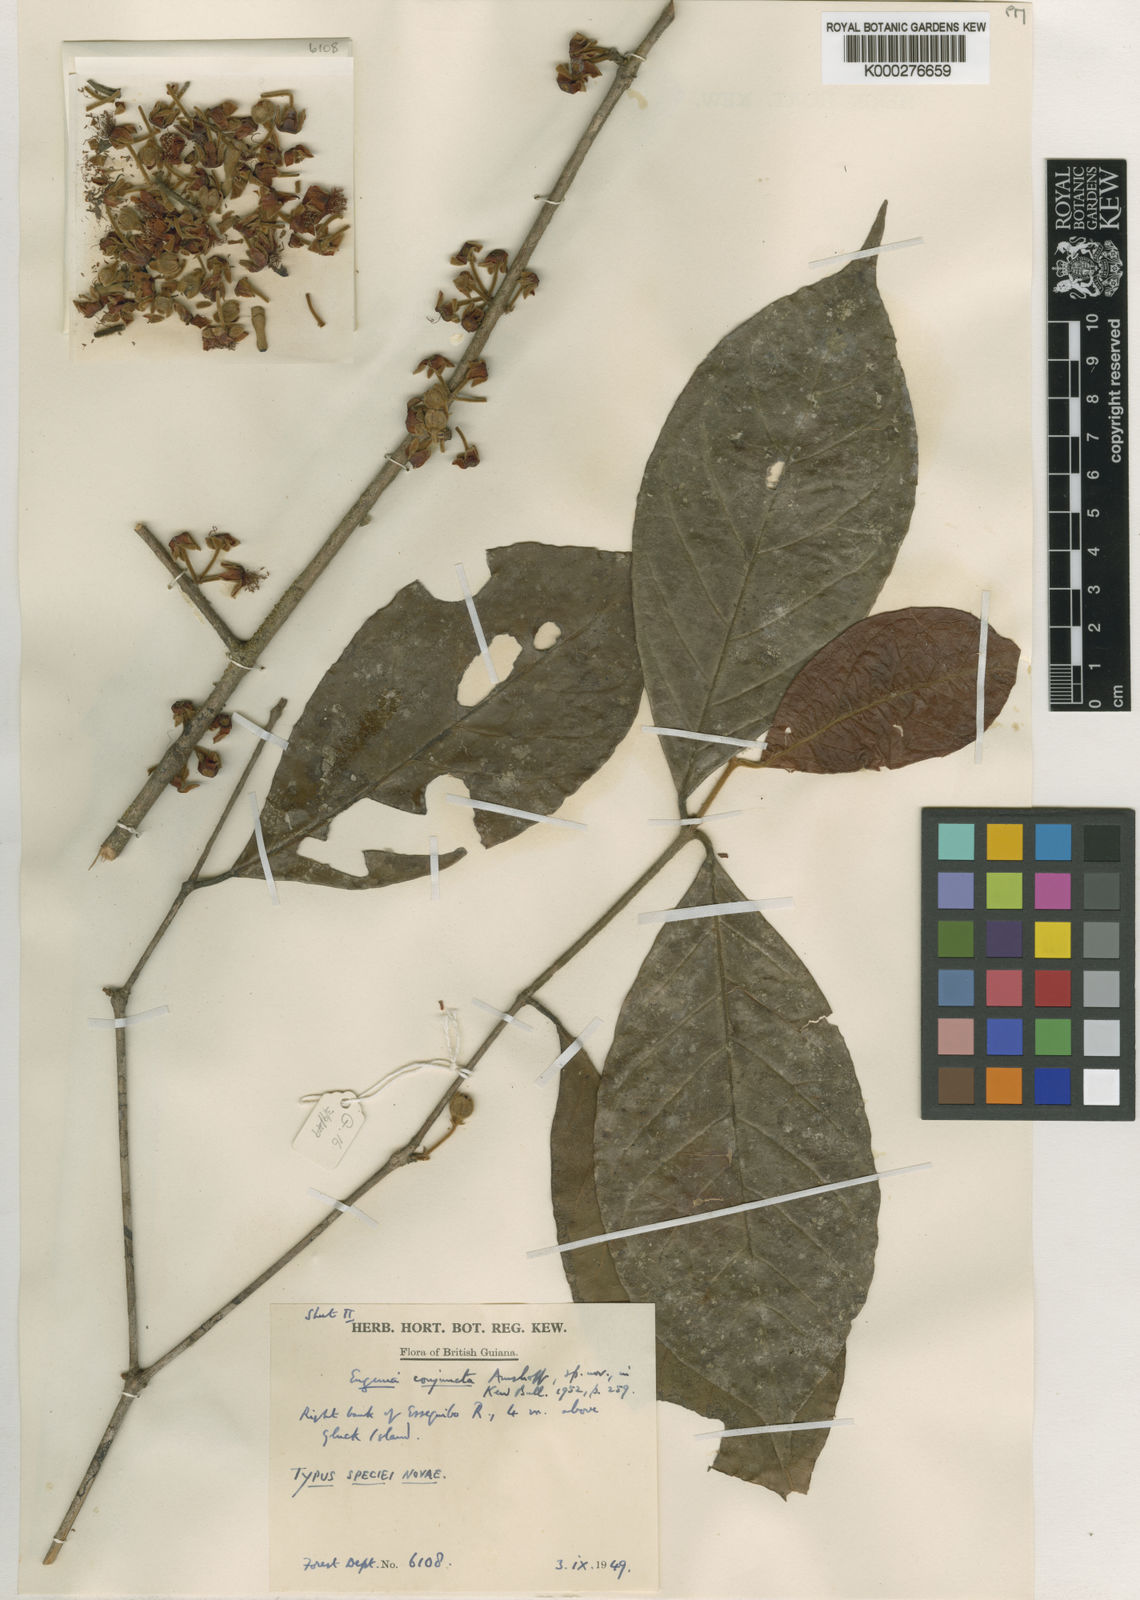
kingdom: Plantae
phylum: Tracheophyta
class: Magnoliopsida
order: Myrtales
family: Myrtaceae
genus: Eugenia
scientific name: Eugenia conjuncta
